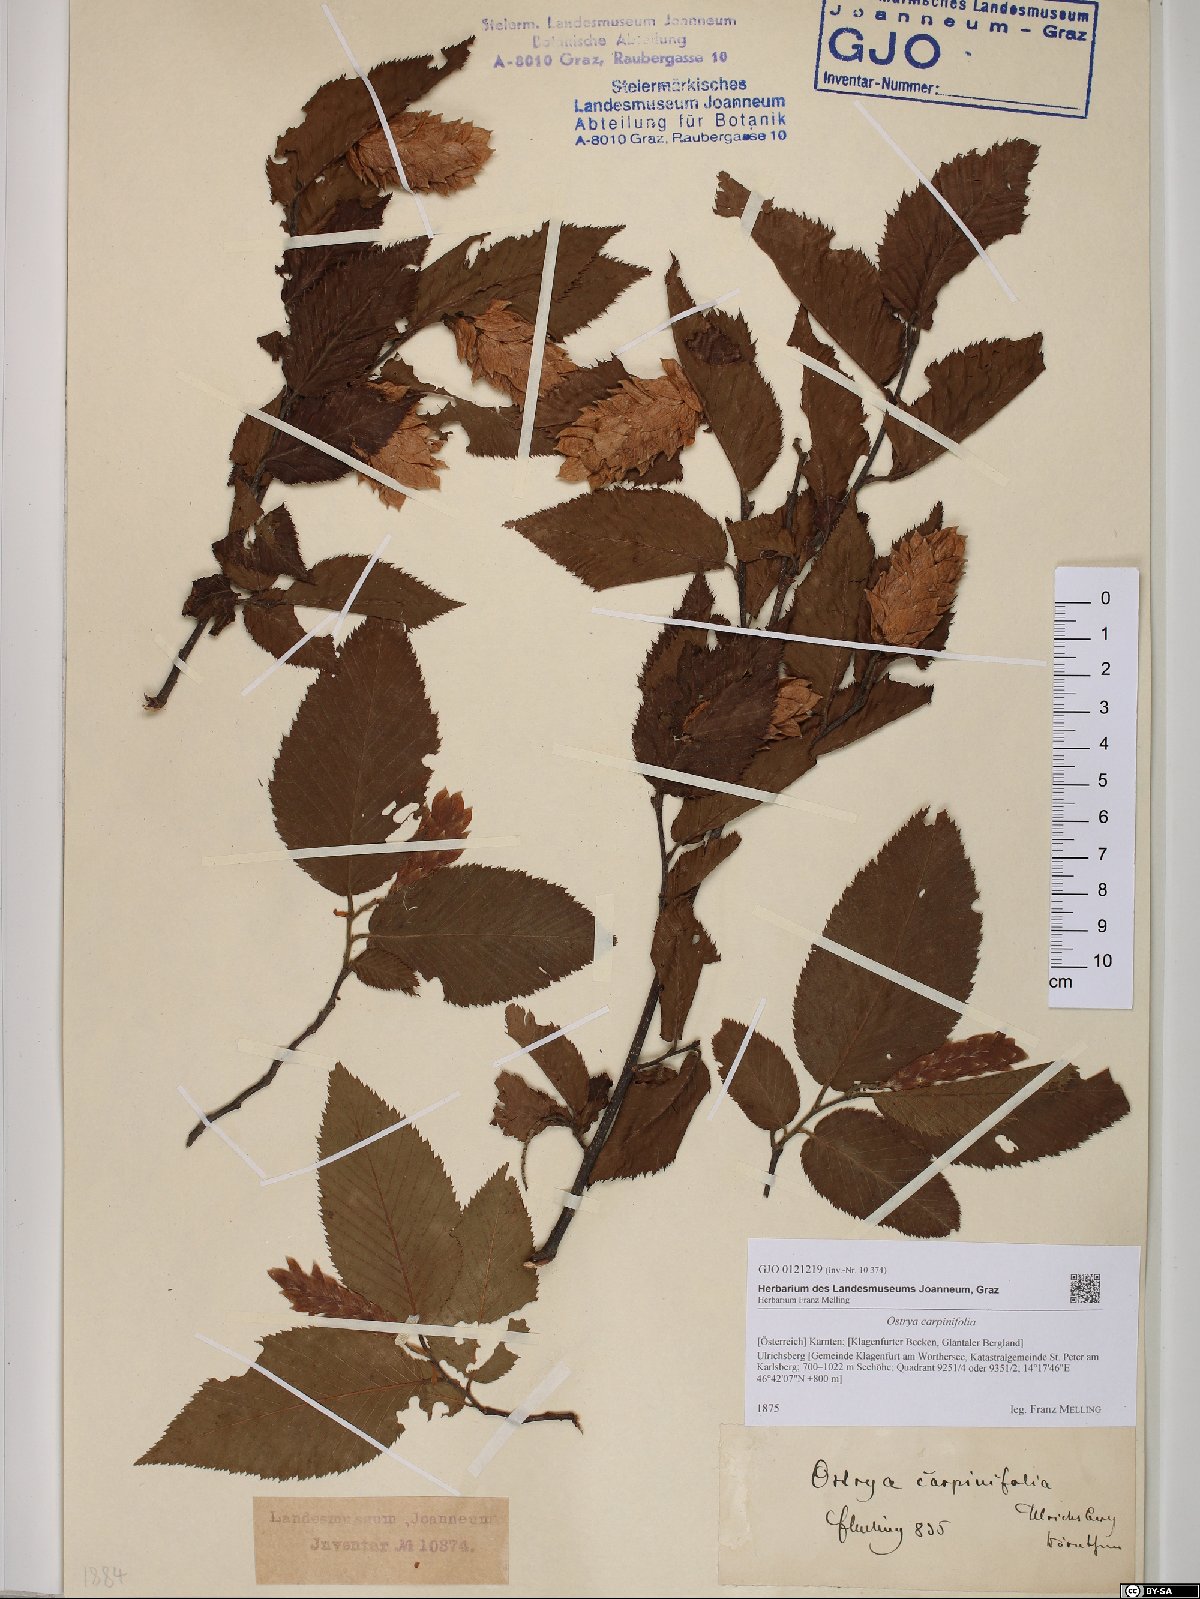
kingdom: Plantae
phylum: Tracheophyta
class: Magnoliopsida
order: Fagales
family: Betulaceae
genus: Ostrya
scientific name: Ostrya carpinifolia
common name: European hop-hornbeam
